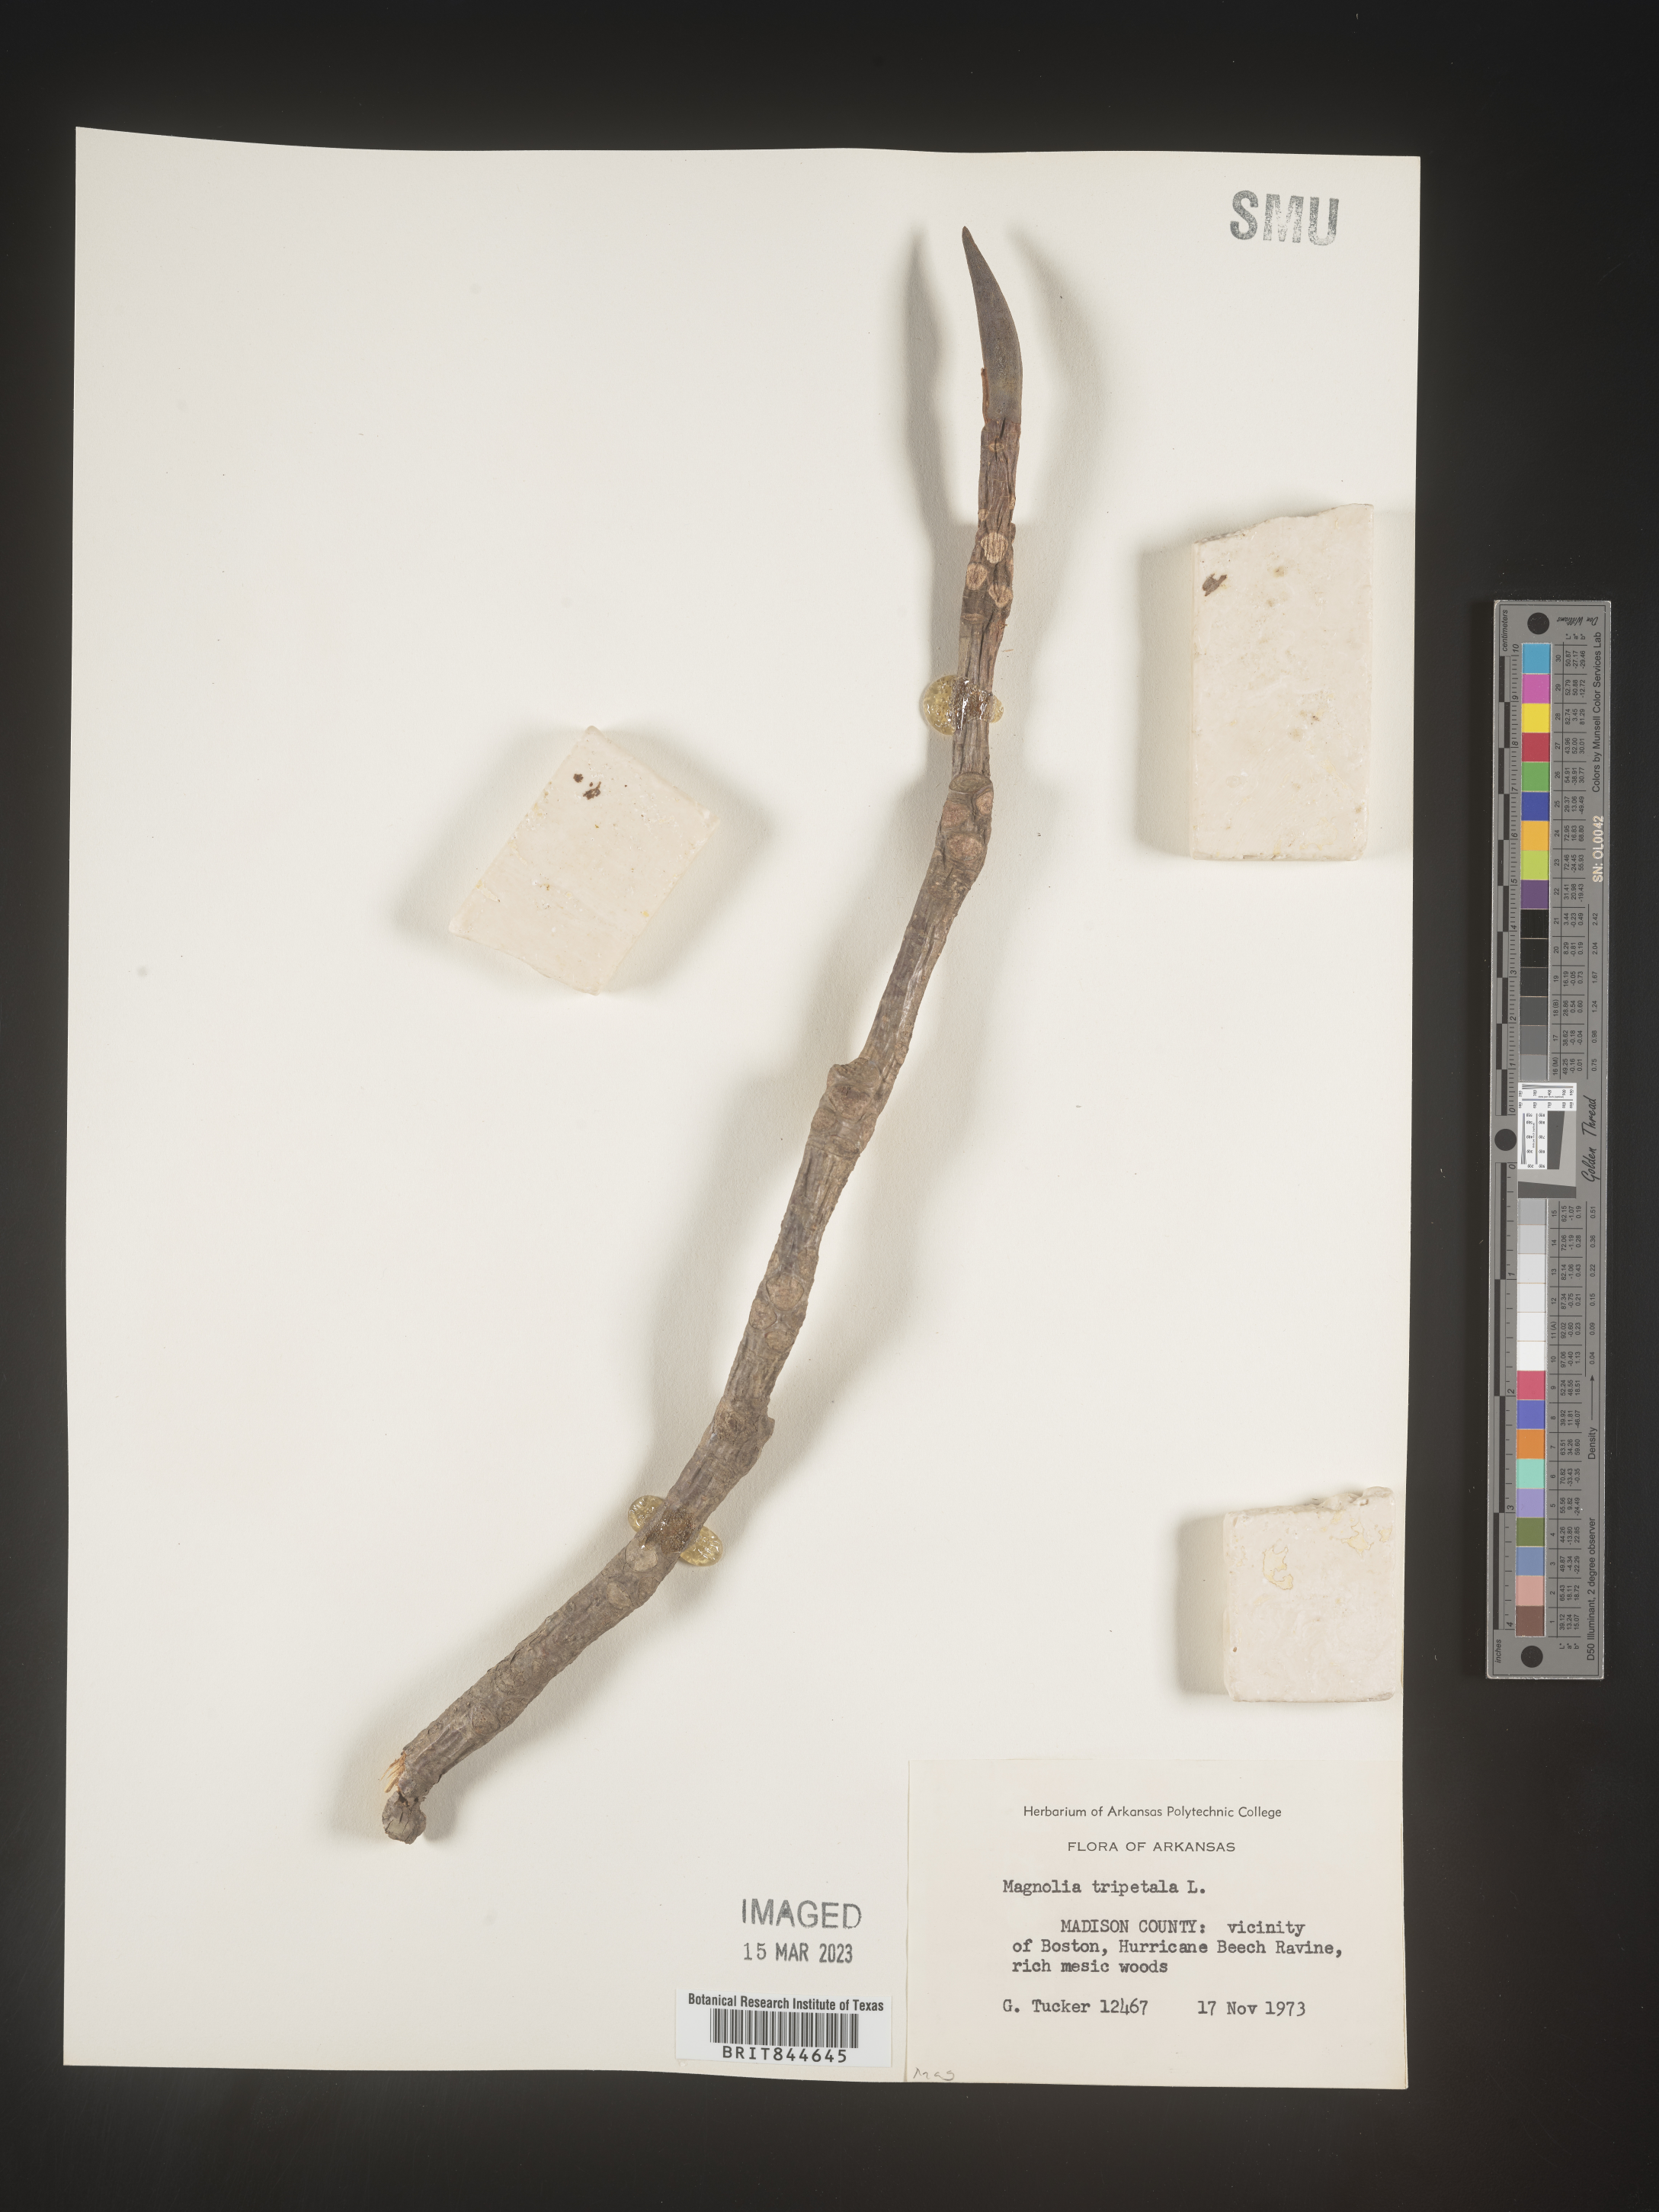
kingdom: Plantae
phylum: Tracheophyta
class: Magnoliopsida
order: Magnoliales
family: Magnoliaceae
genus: Magnolia
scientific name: Magnolia tripetala
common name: Umbrella magnolia
